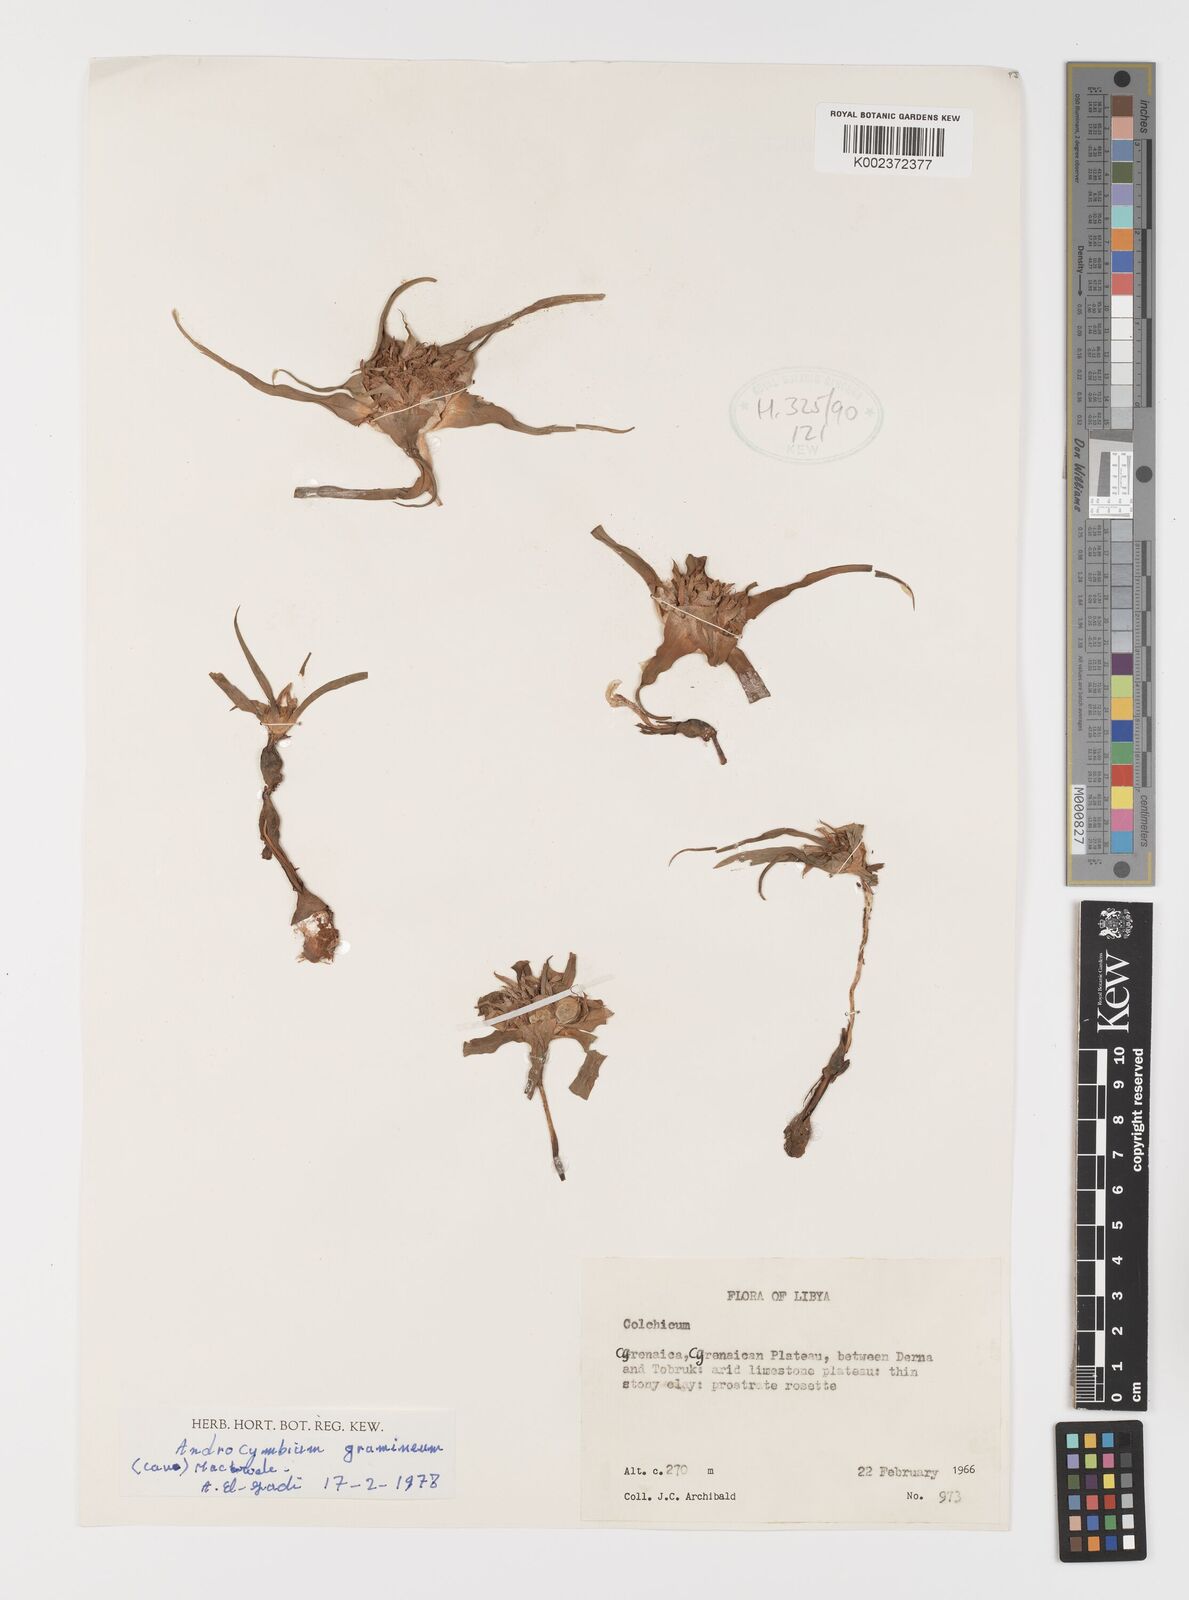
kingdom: Plantae
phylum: Tracheophyta
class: Liliopsida
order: Liliales
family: Colchicaceae
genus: Colchicum
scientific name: Colchicum gramineum
